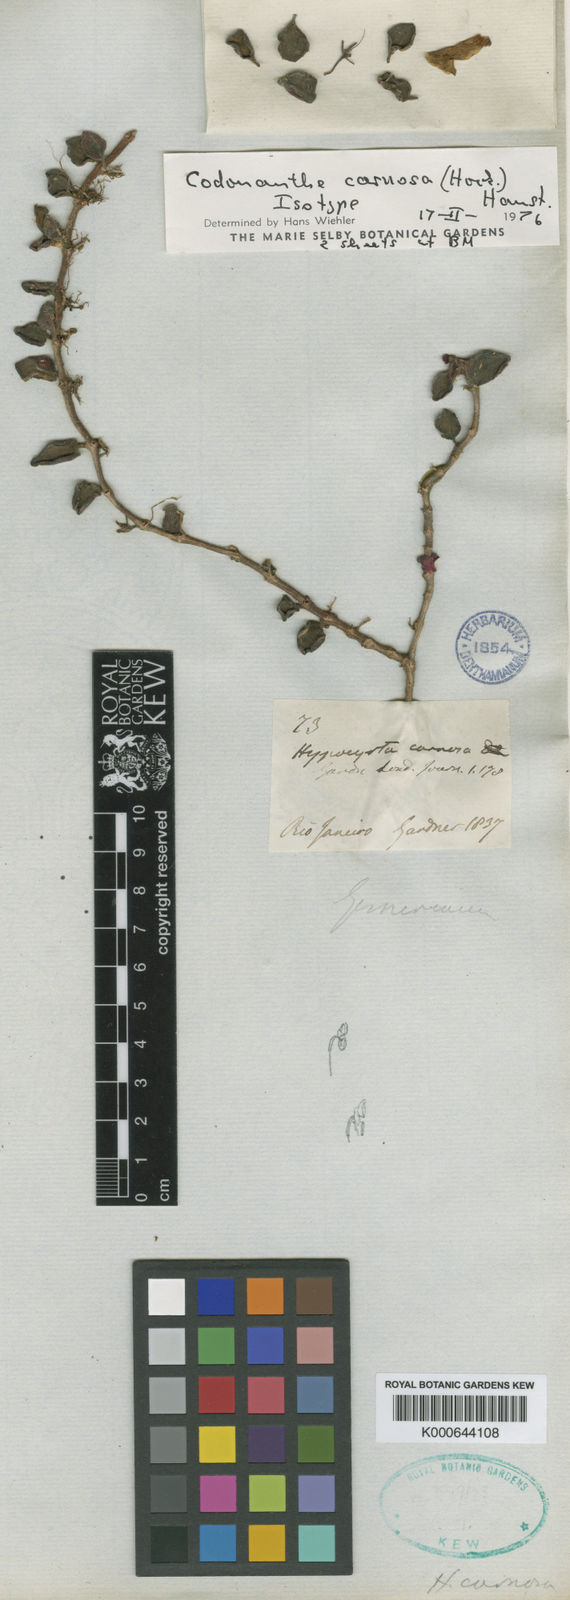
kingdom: Plantae
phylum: Tracheophyta
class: Magnoliopsida
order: Lamiales
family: Gesneriaceae
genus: Codonanthe
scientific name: Codonanthe carnosa
